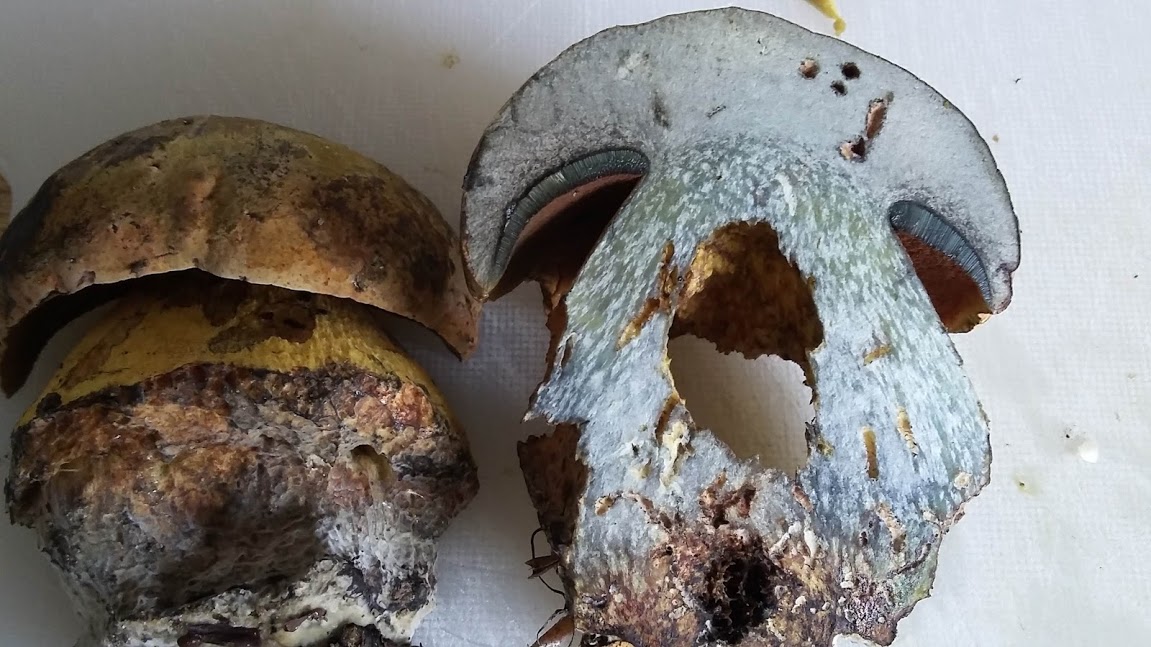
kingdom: Fungi
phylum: Basidiomycota
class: Agaricomycetes
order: Boletales
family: Boletaceae
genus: Suillellus
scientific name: Suillellus luridus
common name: netstokket indigorørhat
